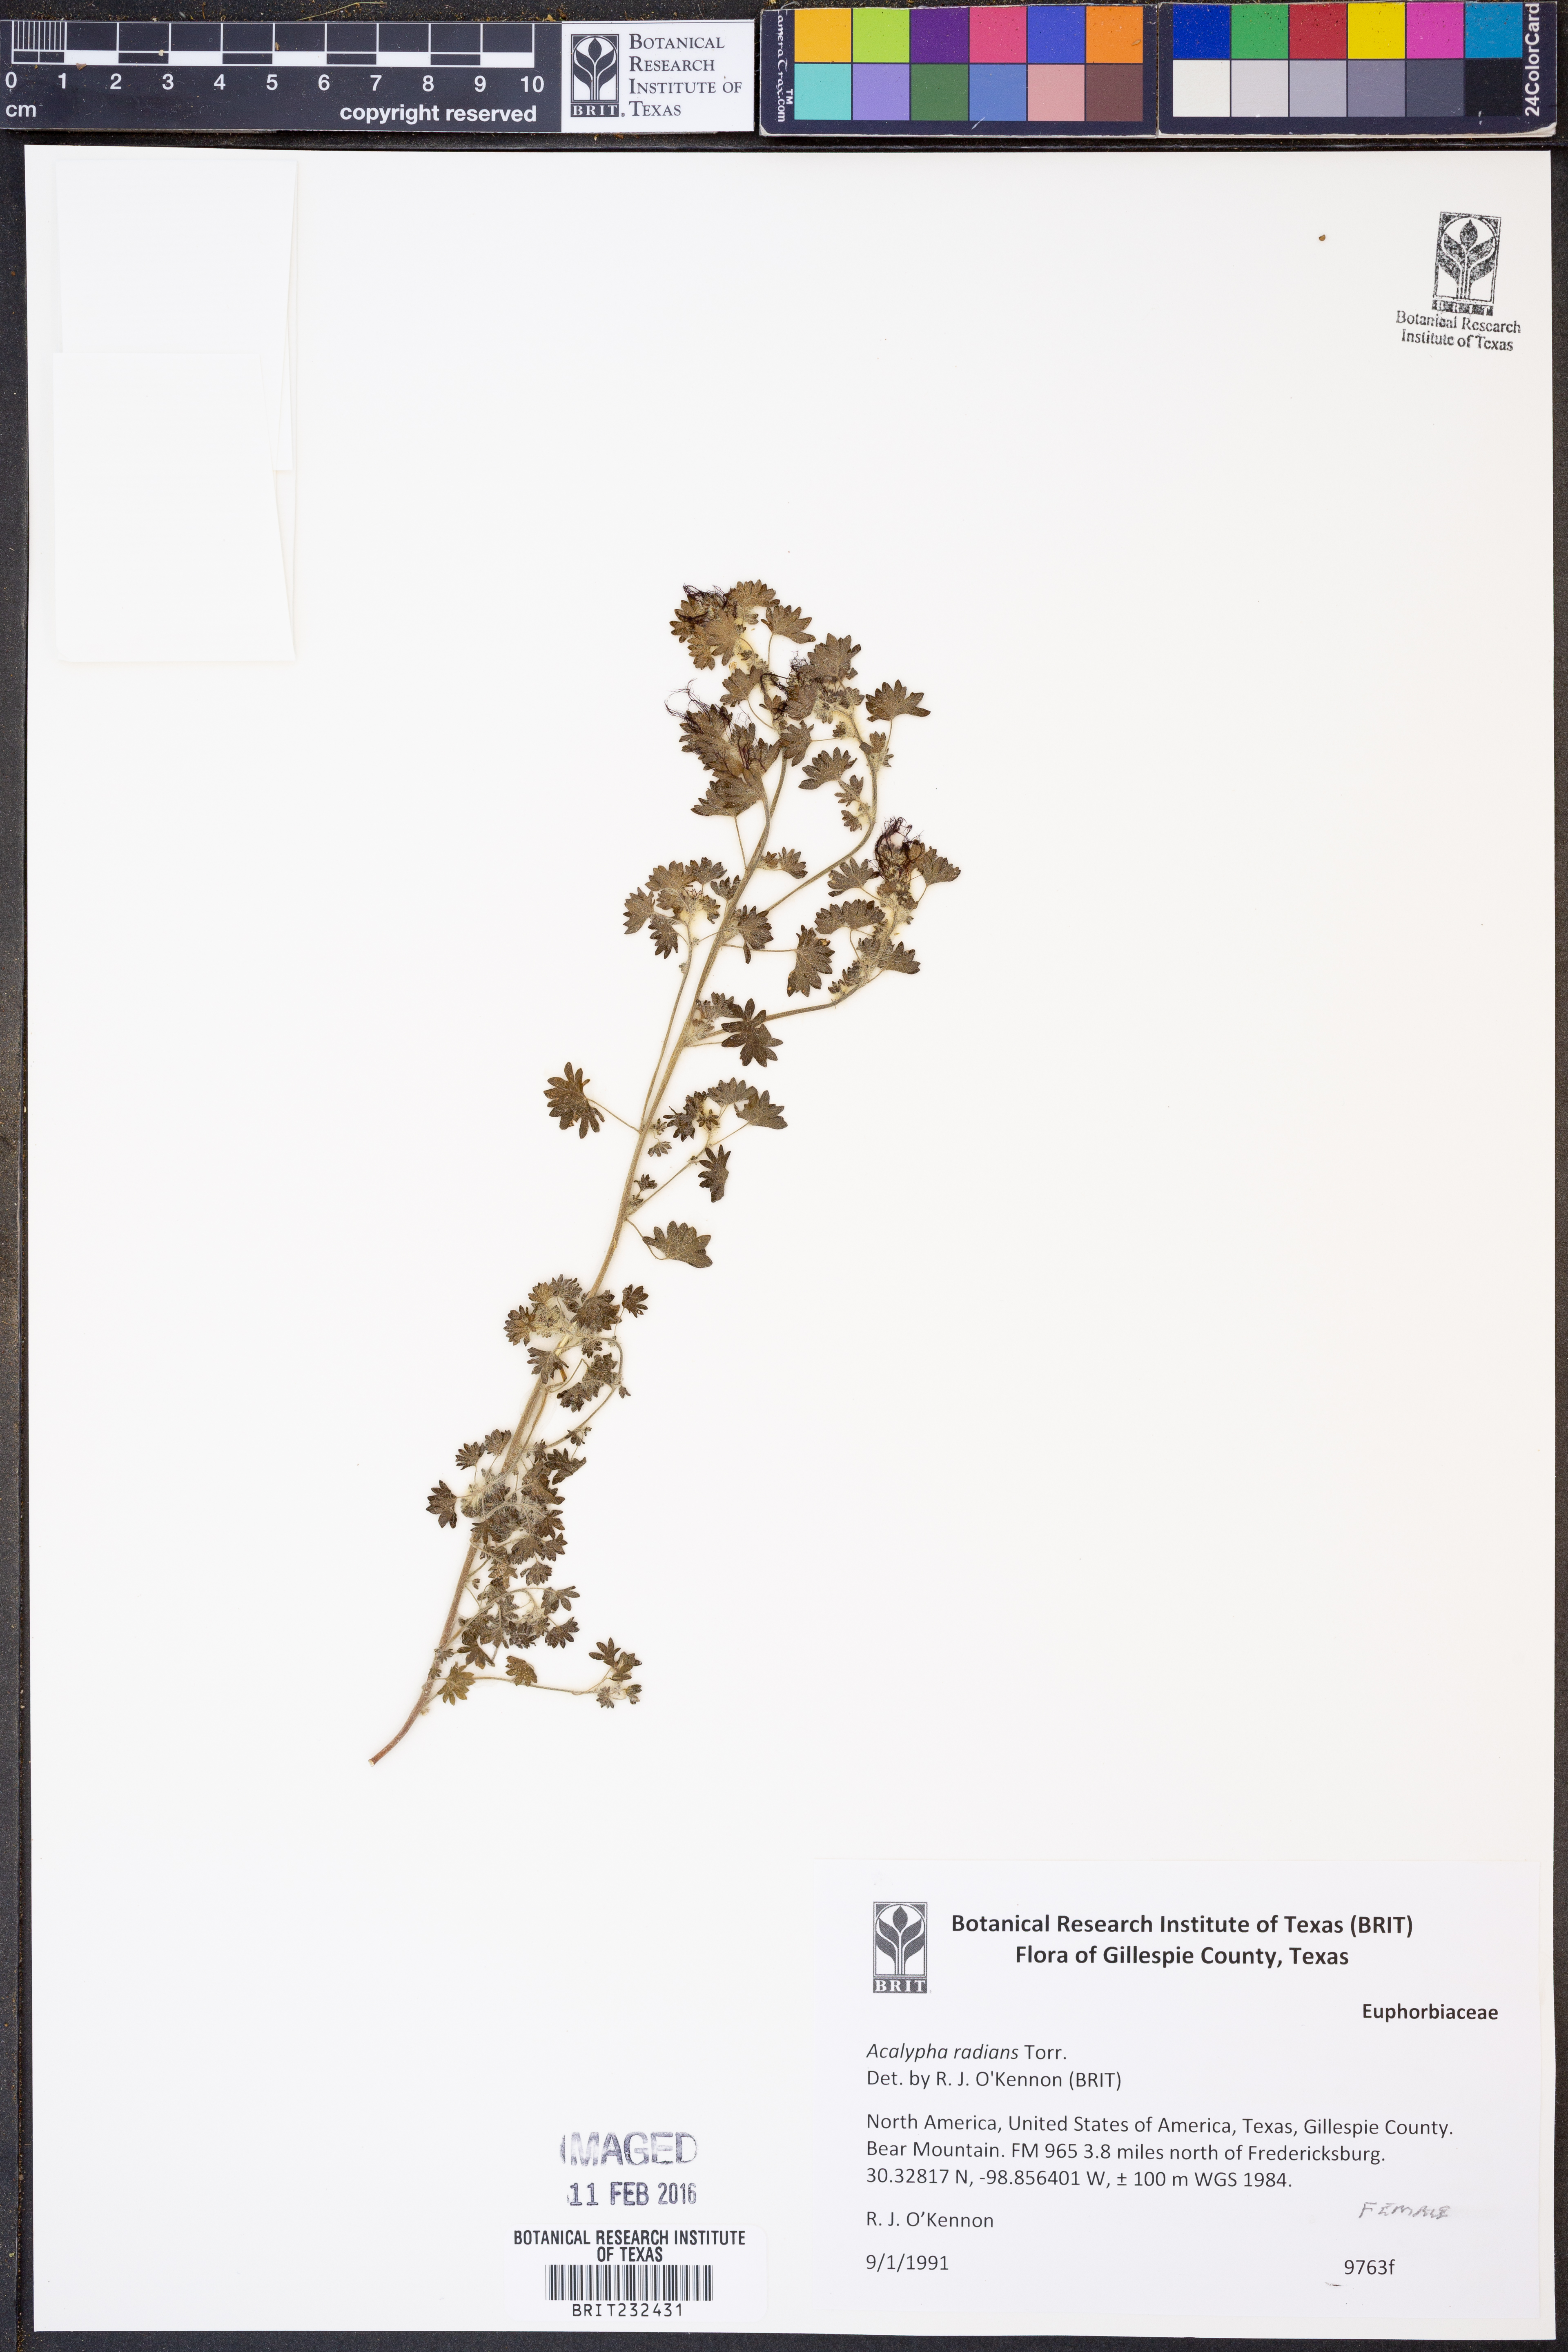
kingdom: Plantae
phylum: Tracheophyta
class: Magnoliopsida
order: Malpighiales
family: Euphorbiaceae
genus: Acalypha
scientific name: Acalypha radians
